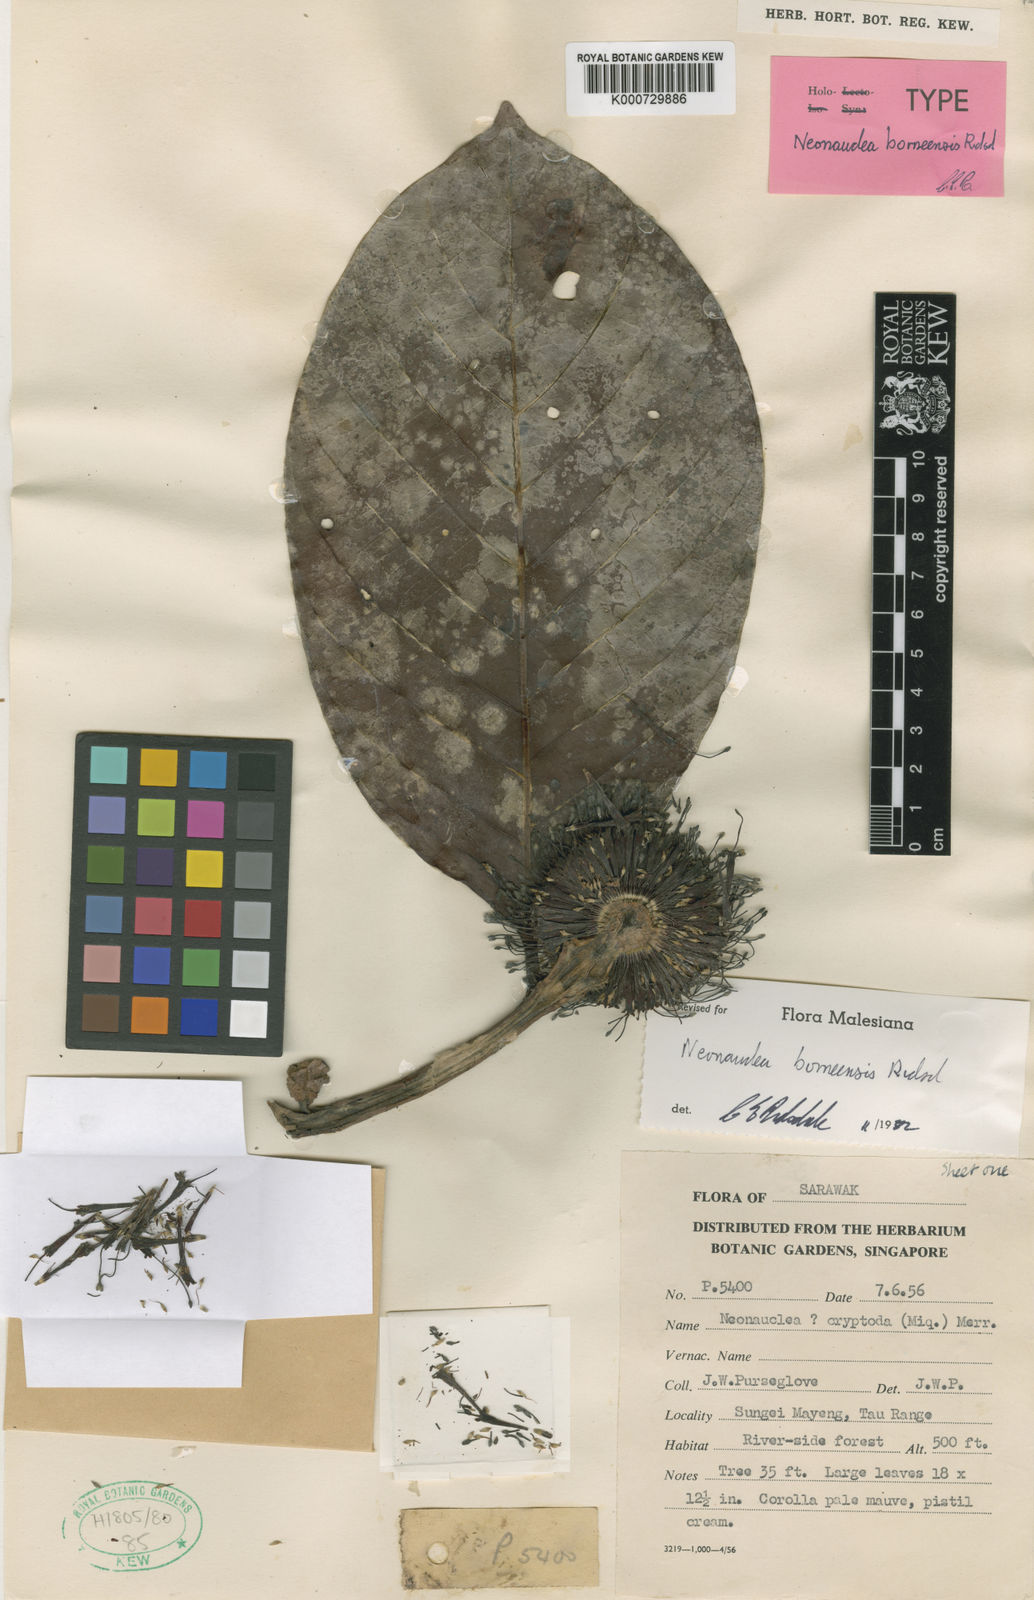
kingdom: Plantae
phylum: Tracheophyta
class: Magnoliopsida
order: Gentianales
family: Rubiaceae
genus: Neonauclea
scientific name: Neonauclea borneensis
